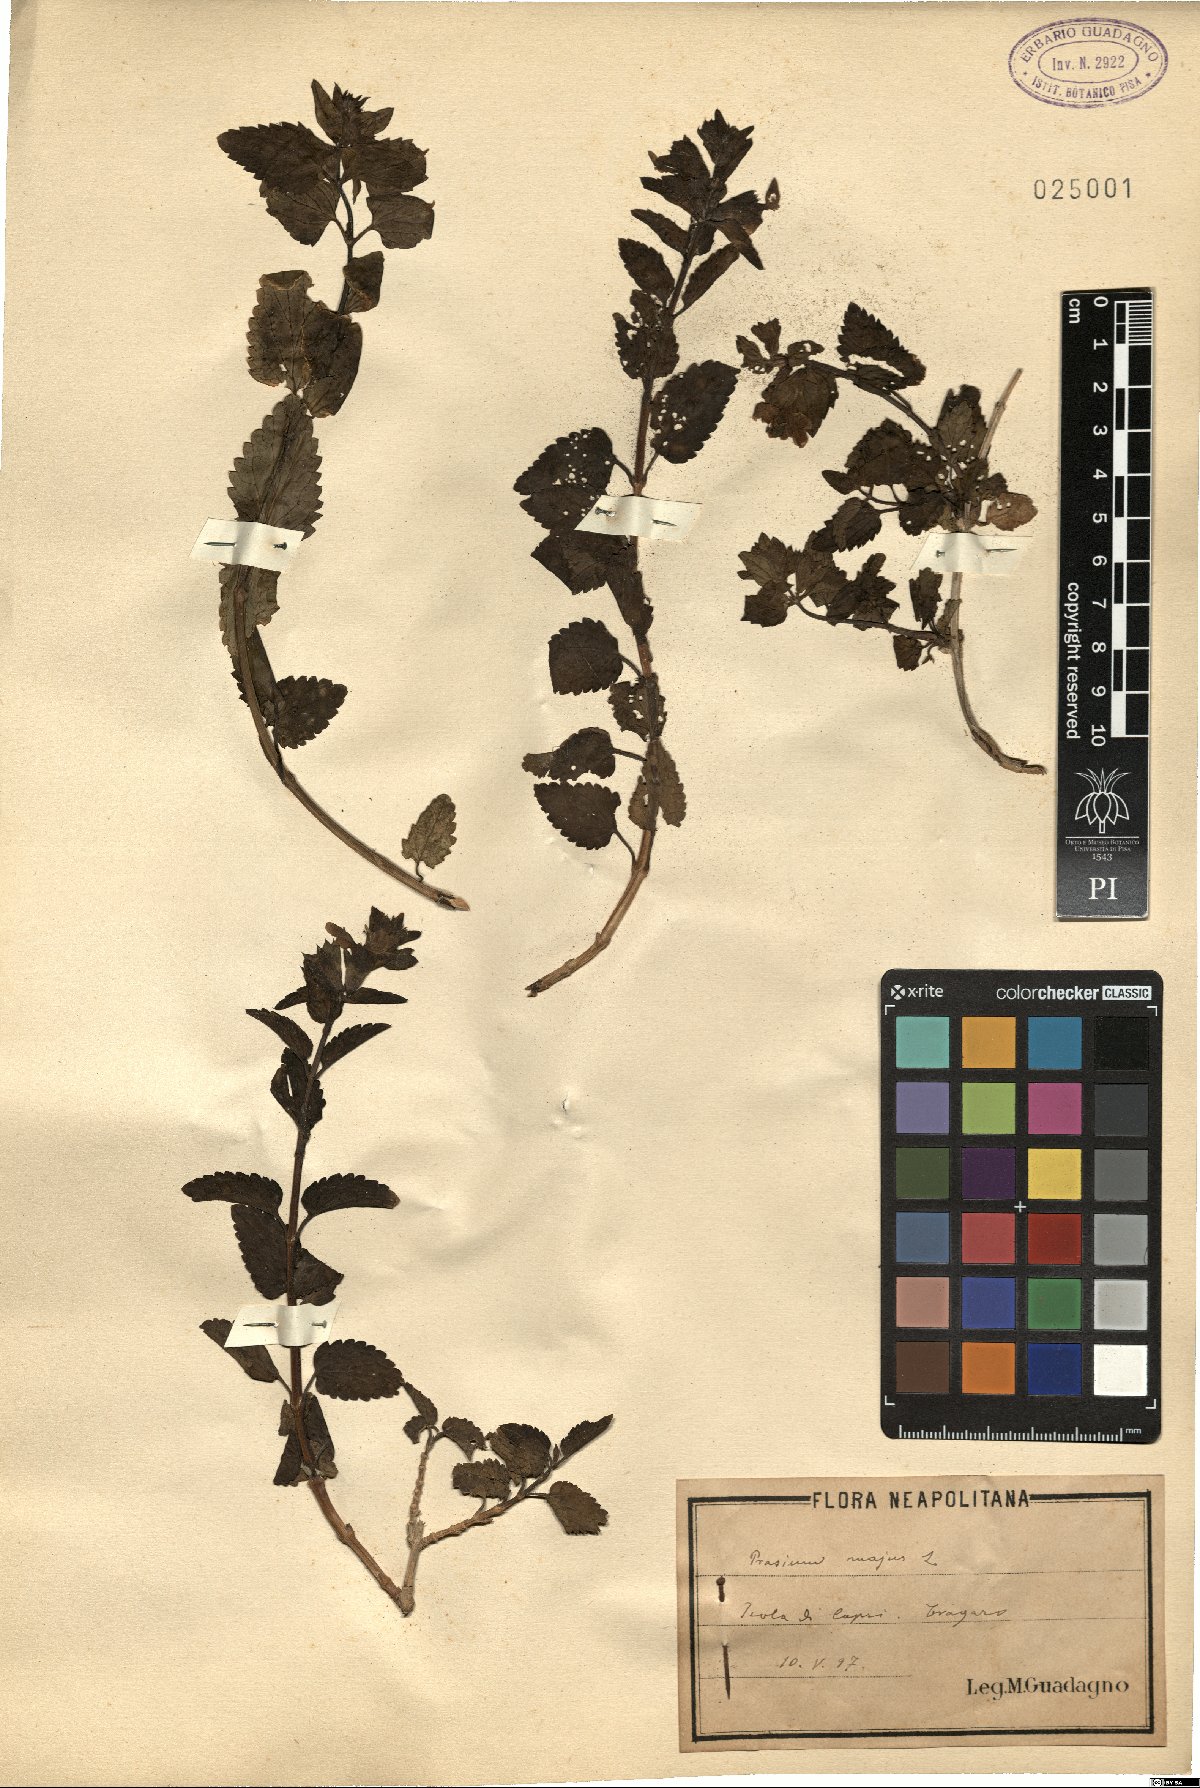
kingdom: Plantae
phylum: Tracheophyta
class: Magnoliopsida
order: Lamiales
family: Lamiaceae
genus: Prasium
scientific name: Prasium majus
